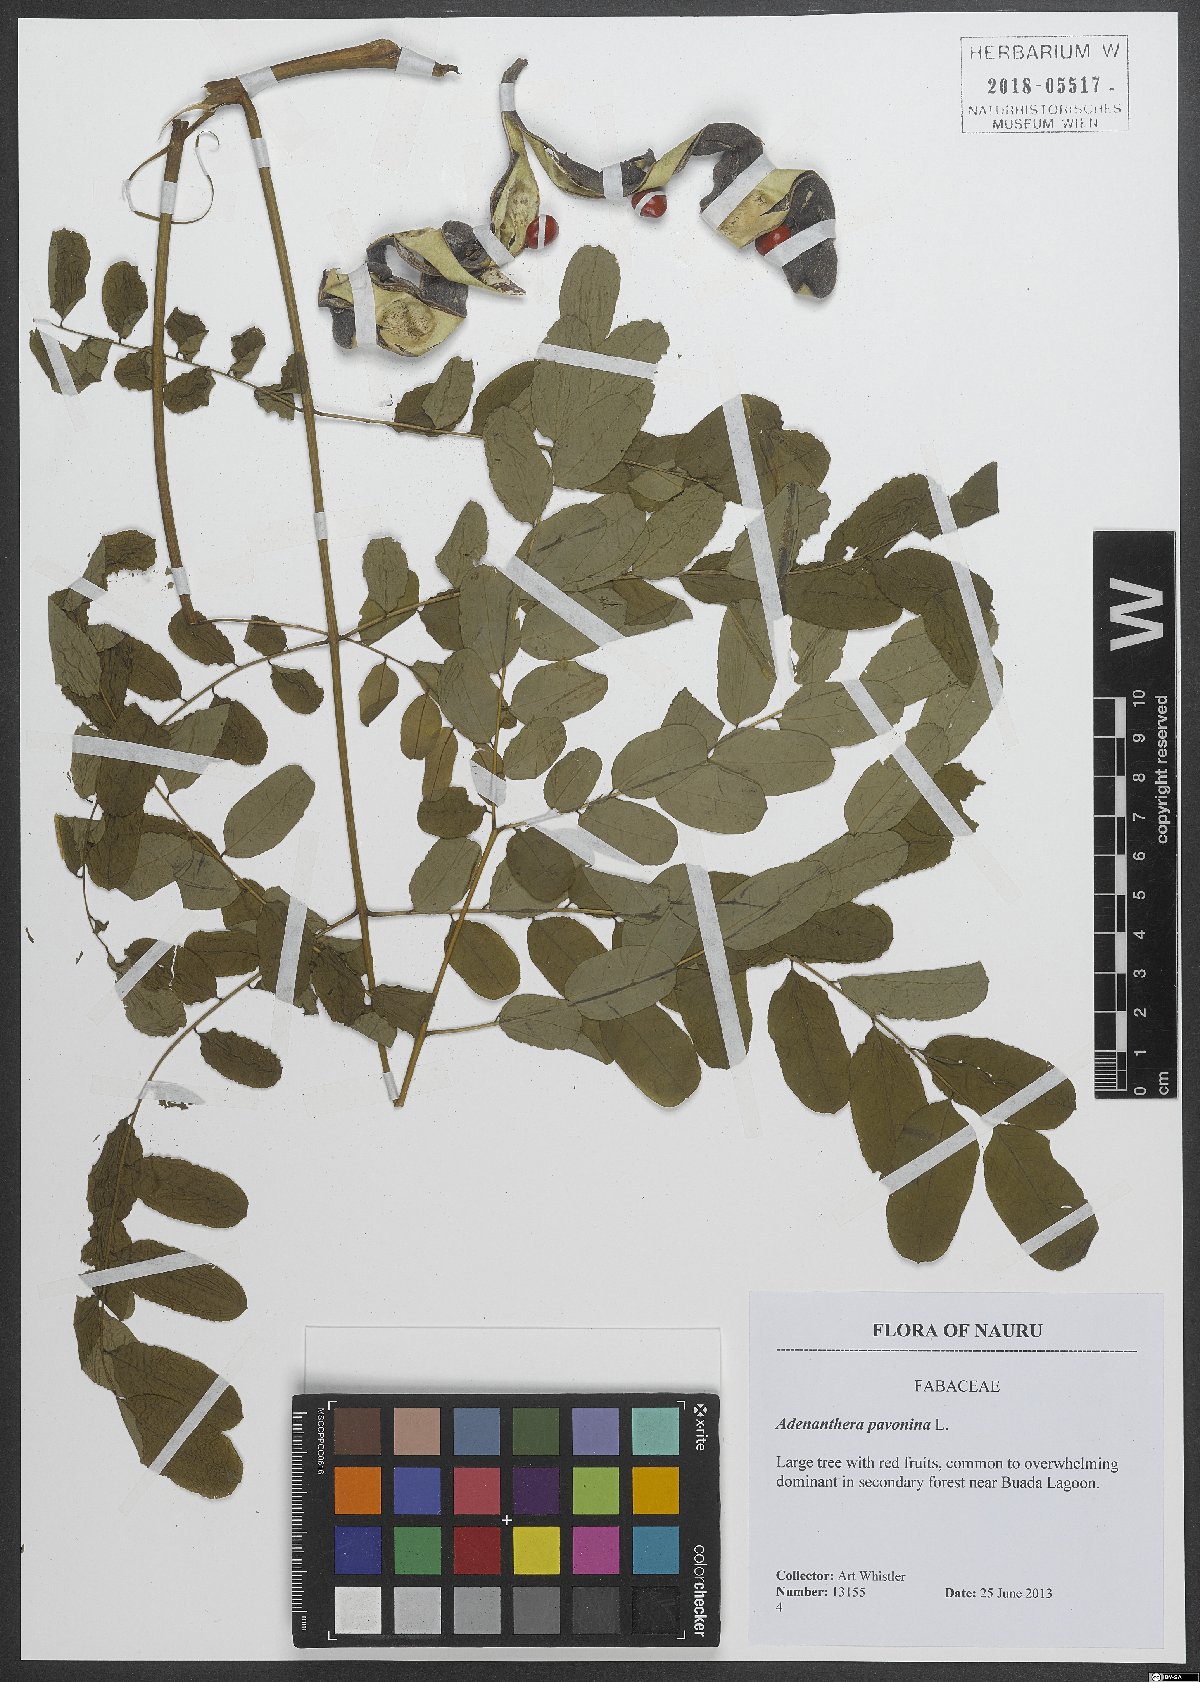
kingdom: Plantae
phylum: Tracheophyta
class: Magnoliopsida
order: Fabales
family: Fabaceae
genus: Adenanthera
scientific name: Adenanthera pavonina
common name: Red beadtree
